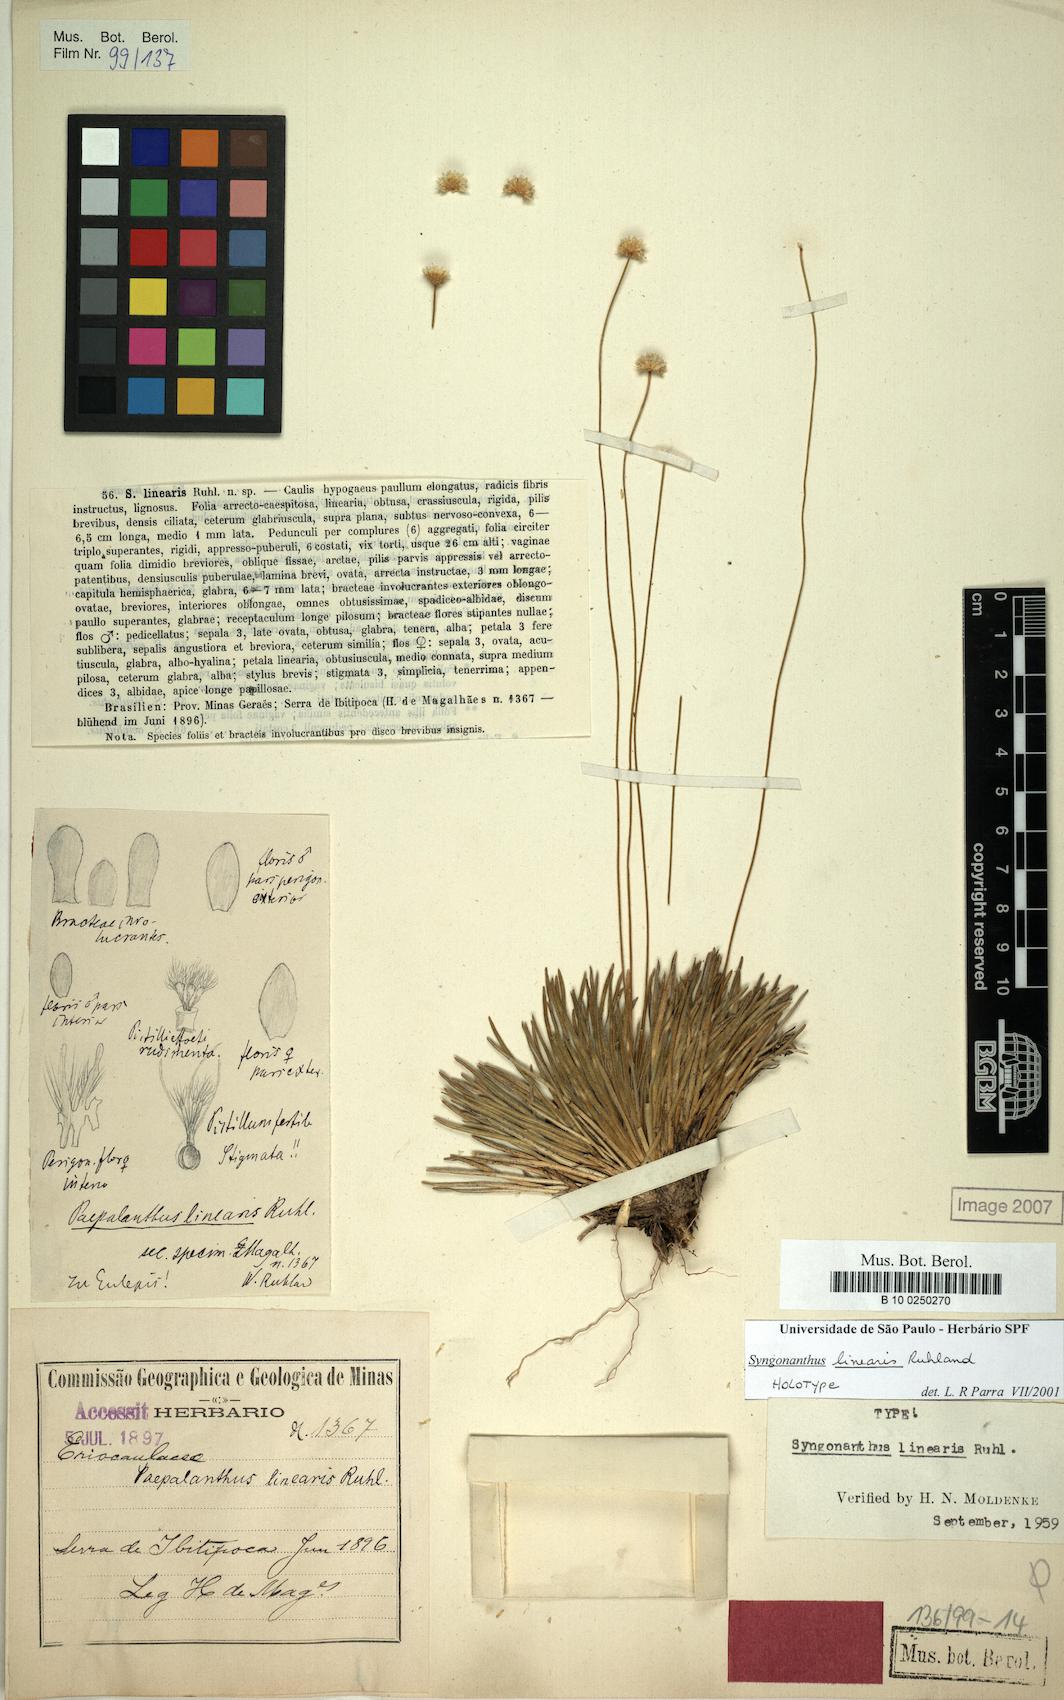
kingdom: Plantae
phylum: Tracheophyta
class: Liliopsida
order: Poales
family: Eriocaulaceae
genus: Comanthera
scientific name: Comanthera caespitosa
